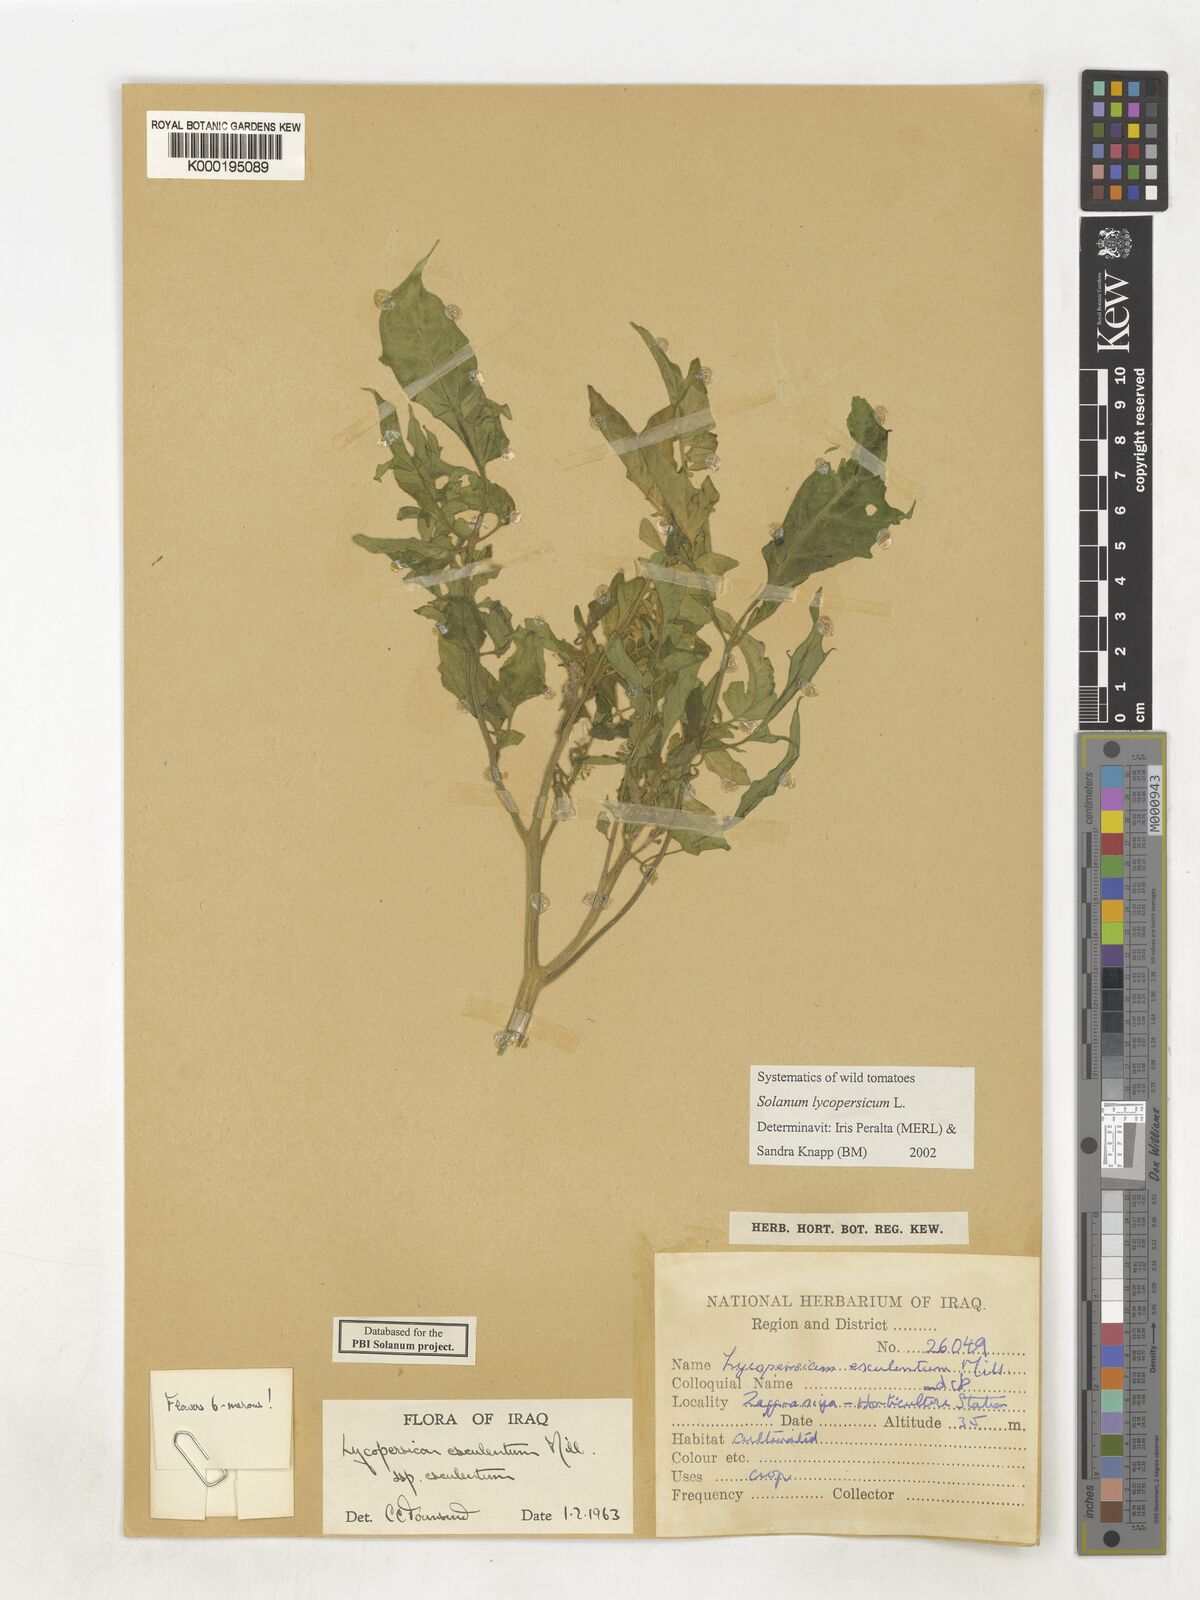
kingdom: Plantae
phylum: Tracheophyta
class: Magnoliopsida
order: Solanales
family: Solanaceae
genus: Solanum
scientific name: Solanum lycopersicum
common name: Garden tomato
